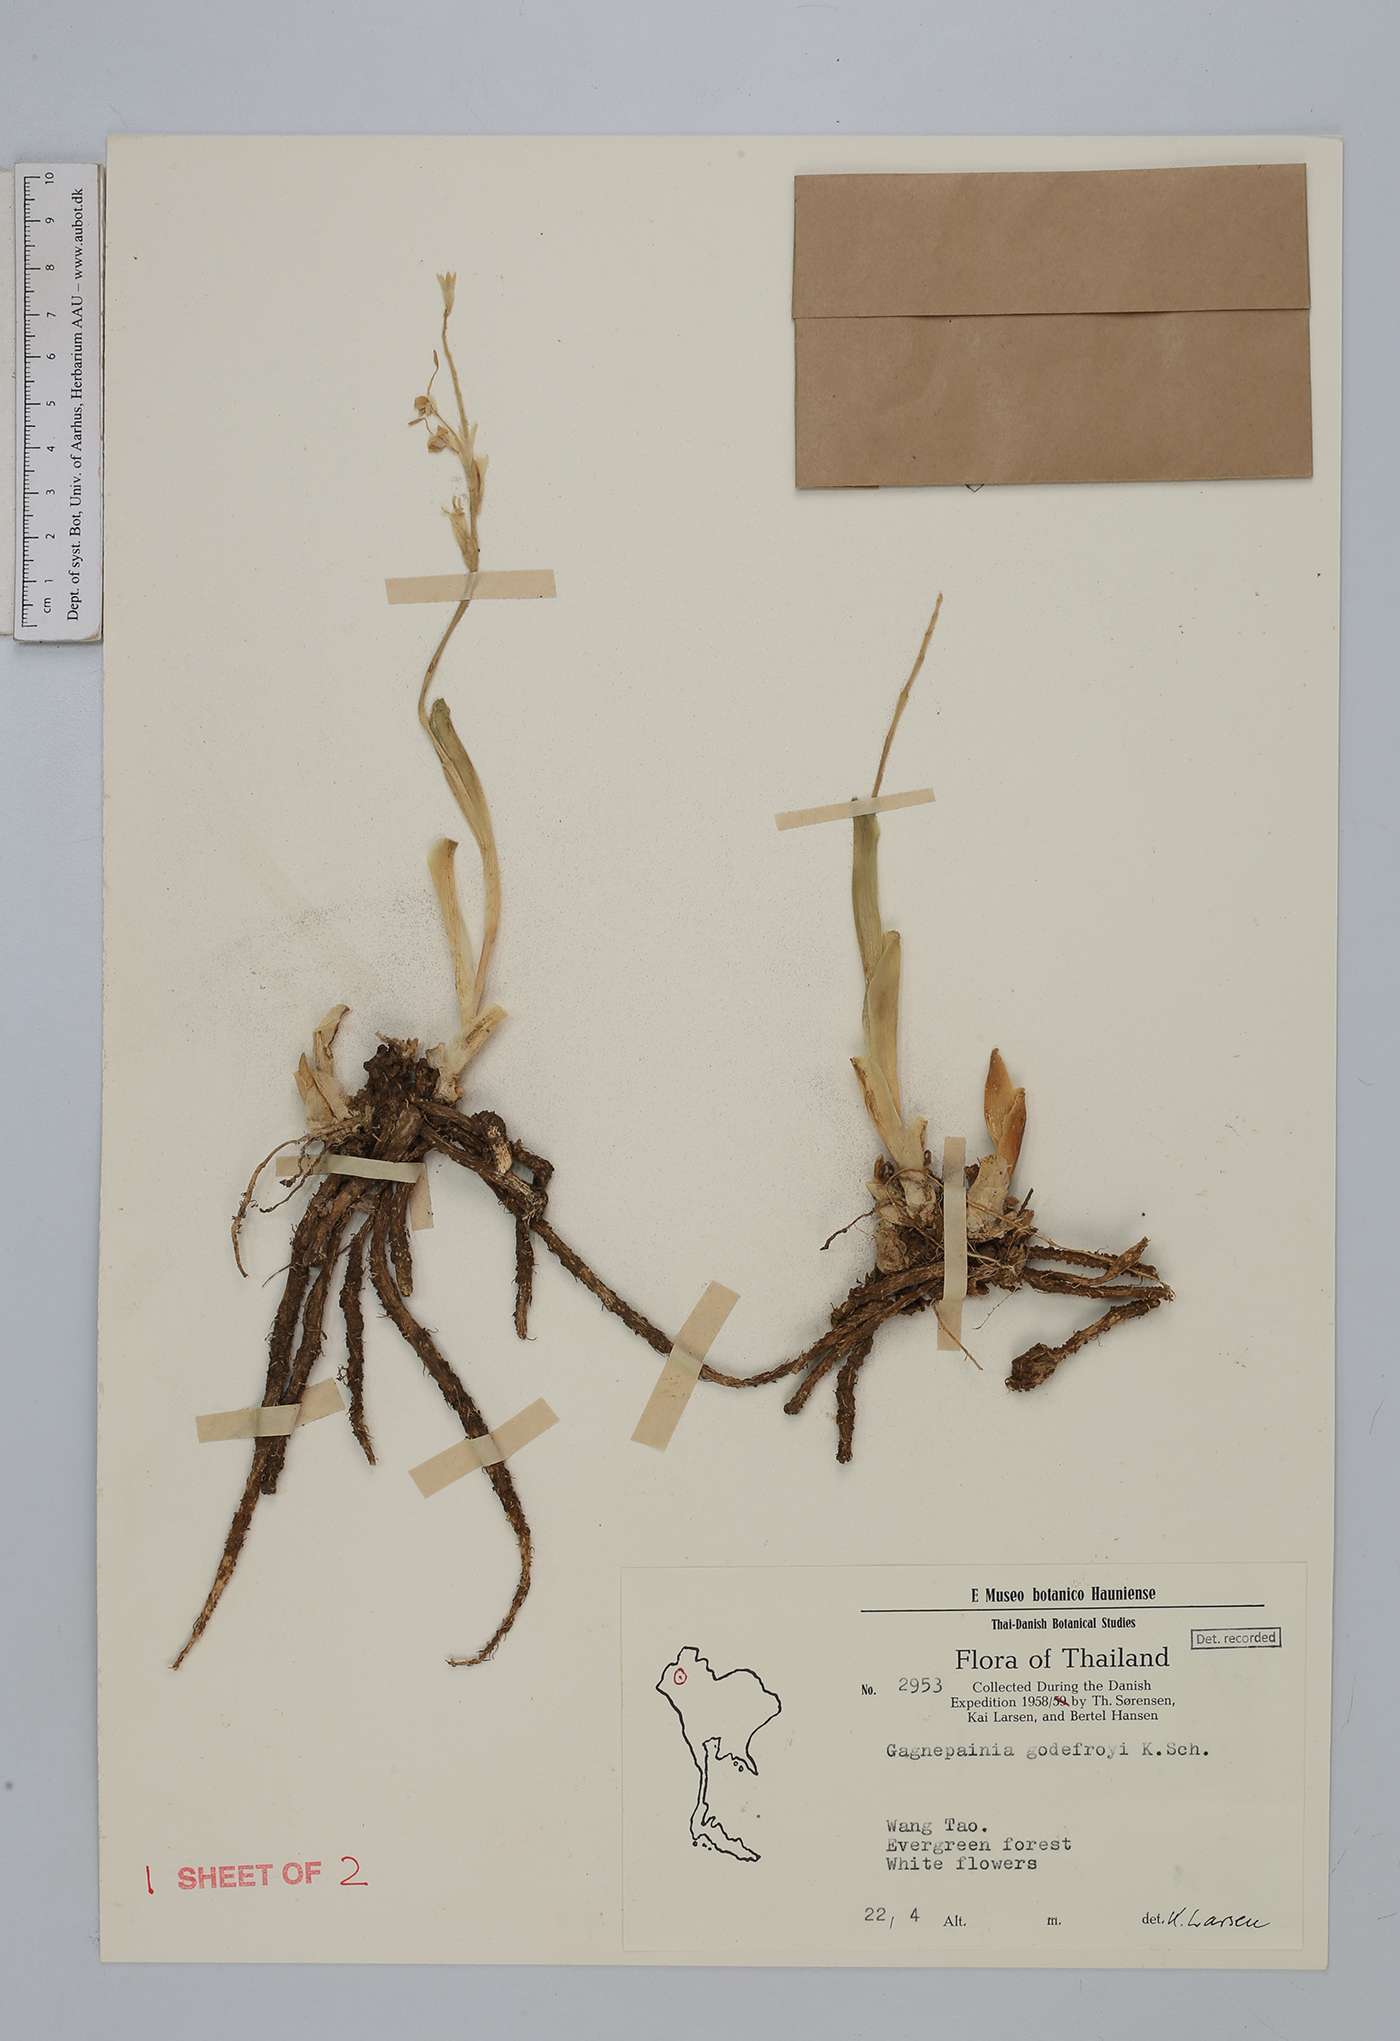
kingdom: Plantae
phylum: Tracheophyta
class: Liliopsida
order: Zingiberales
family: Zingiberaceae
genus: Gagnepainia
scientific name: Gagnepainia godefroyi
